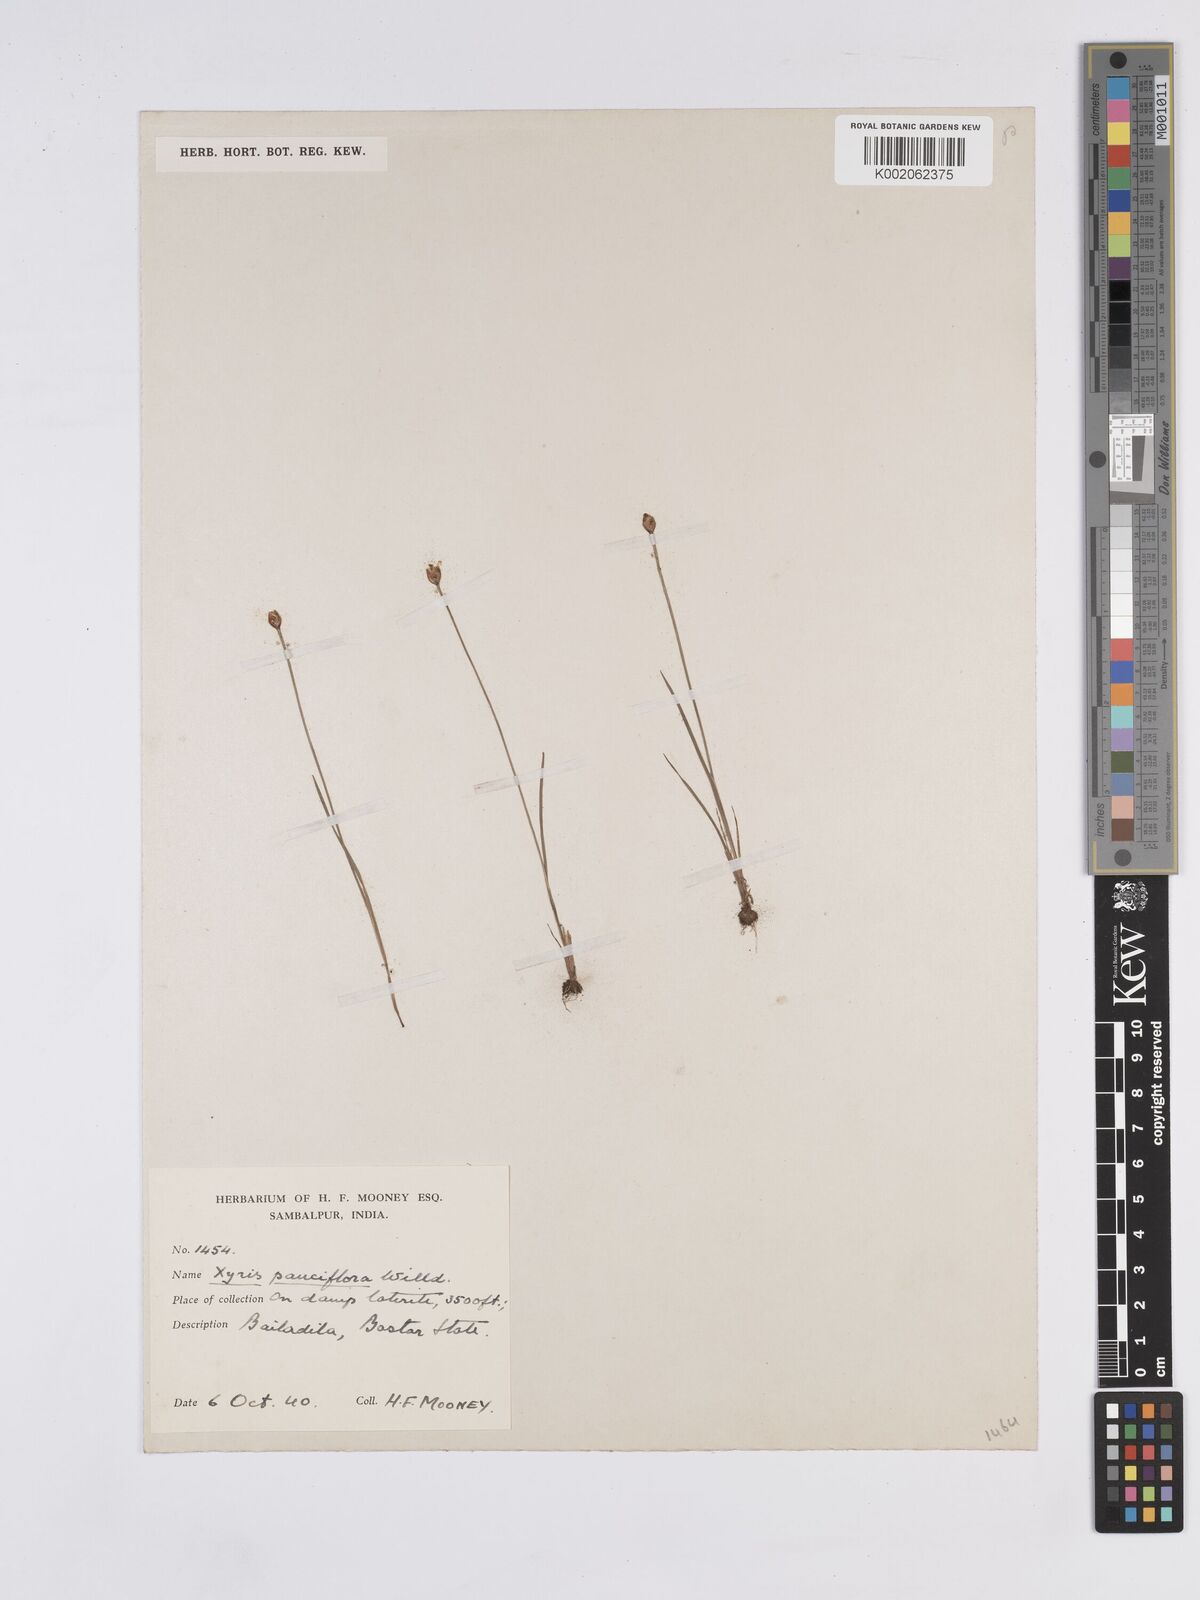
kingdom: Plantae
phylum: Tracheophyta
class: Liliopsida
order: Poales
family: Xyridaceae
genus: Xyris
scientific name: Xyris pauciflora
